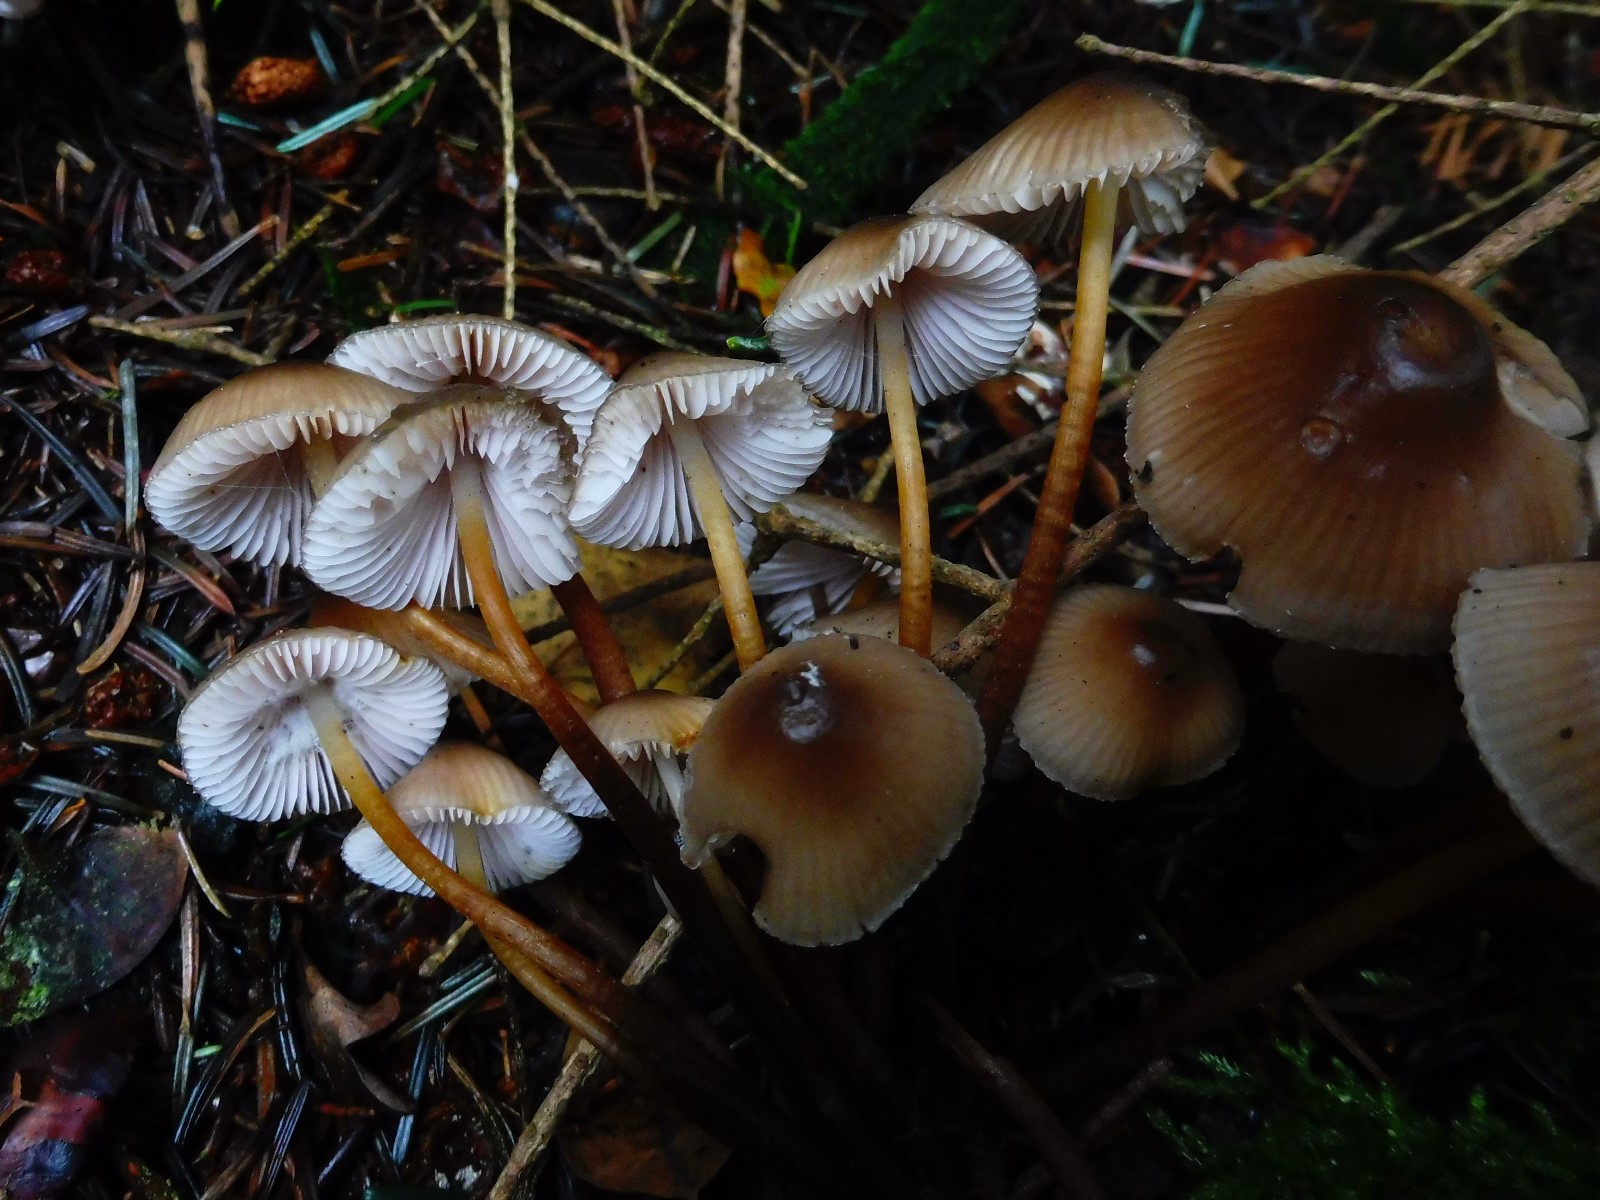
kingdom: Fungi
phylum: Basidiomycota
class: Agaricomycetes
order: Agaricales
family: Mycenaceae
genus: Mycena
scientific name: Mycena inclinata
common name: nikkende huesvamp
